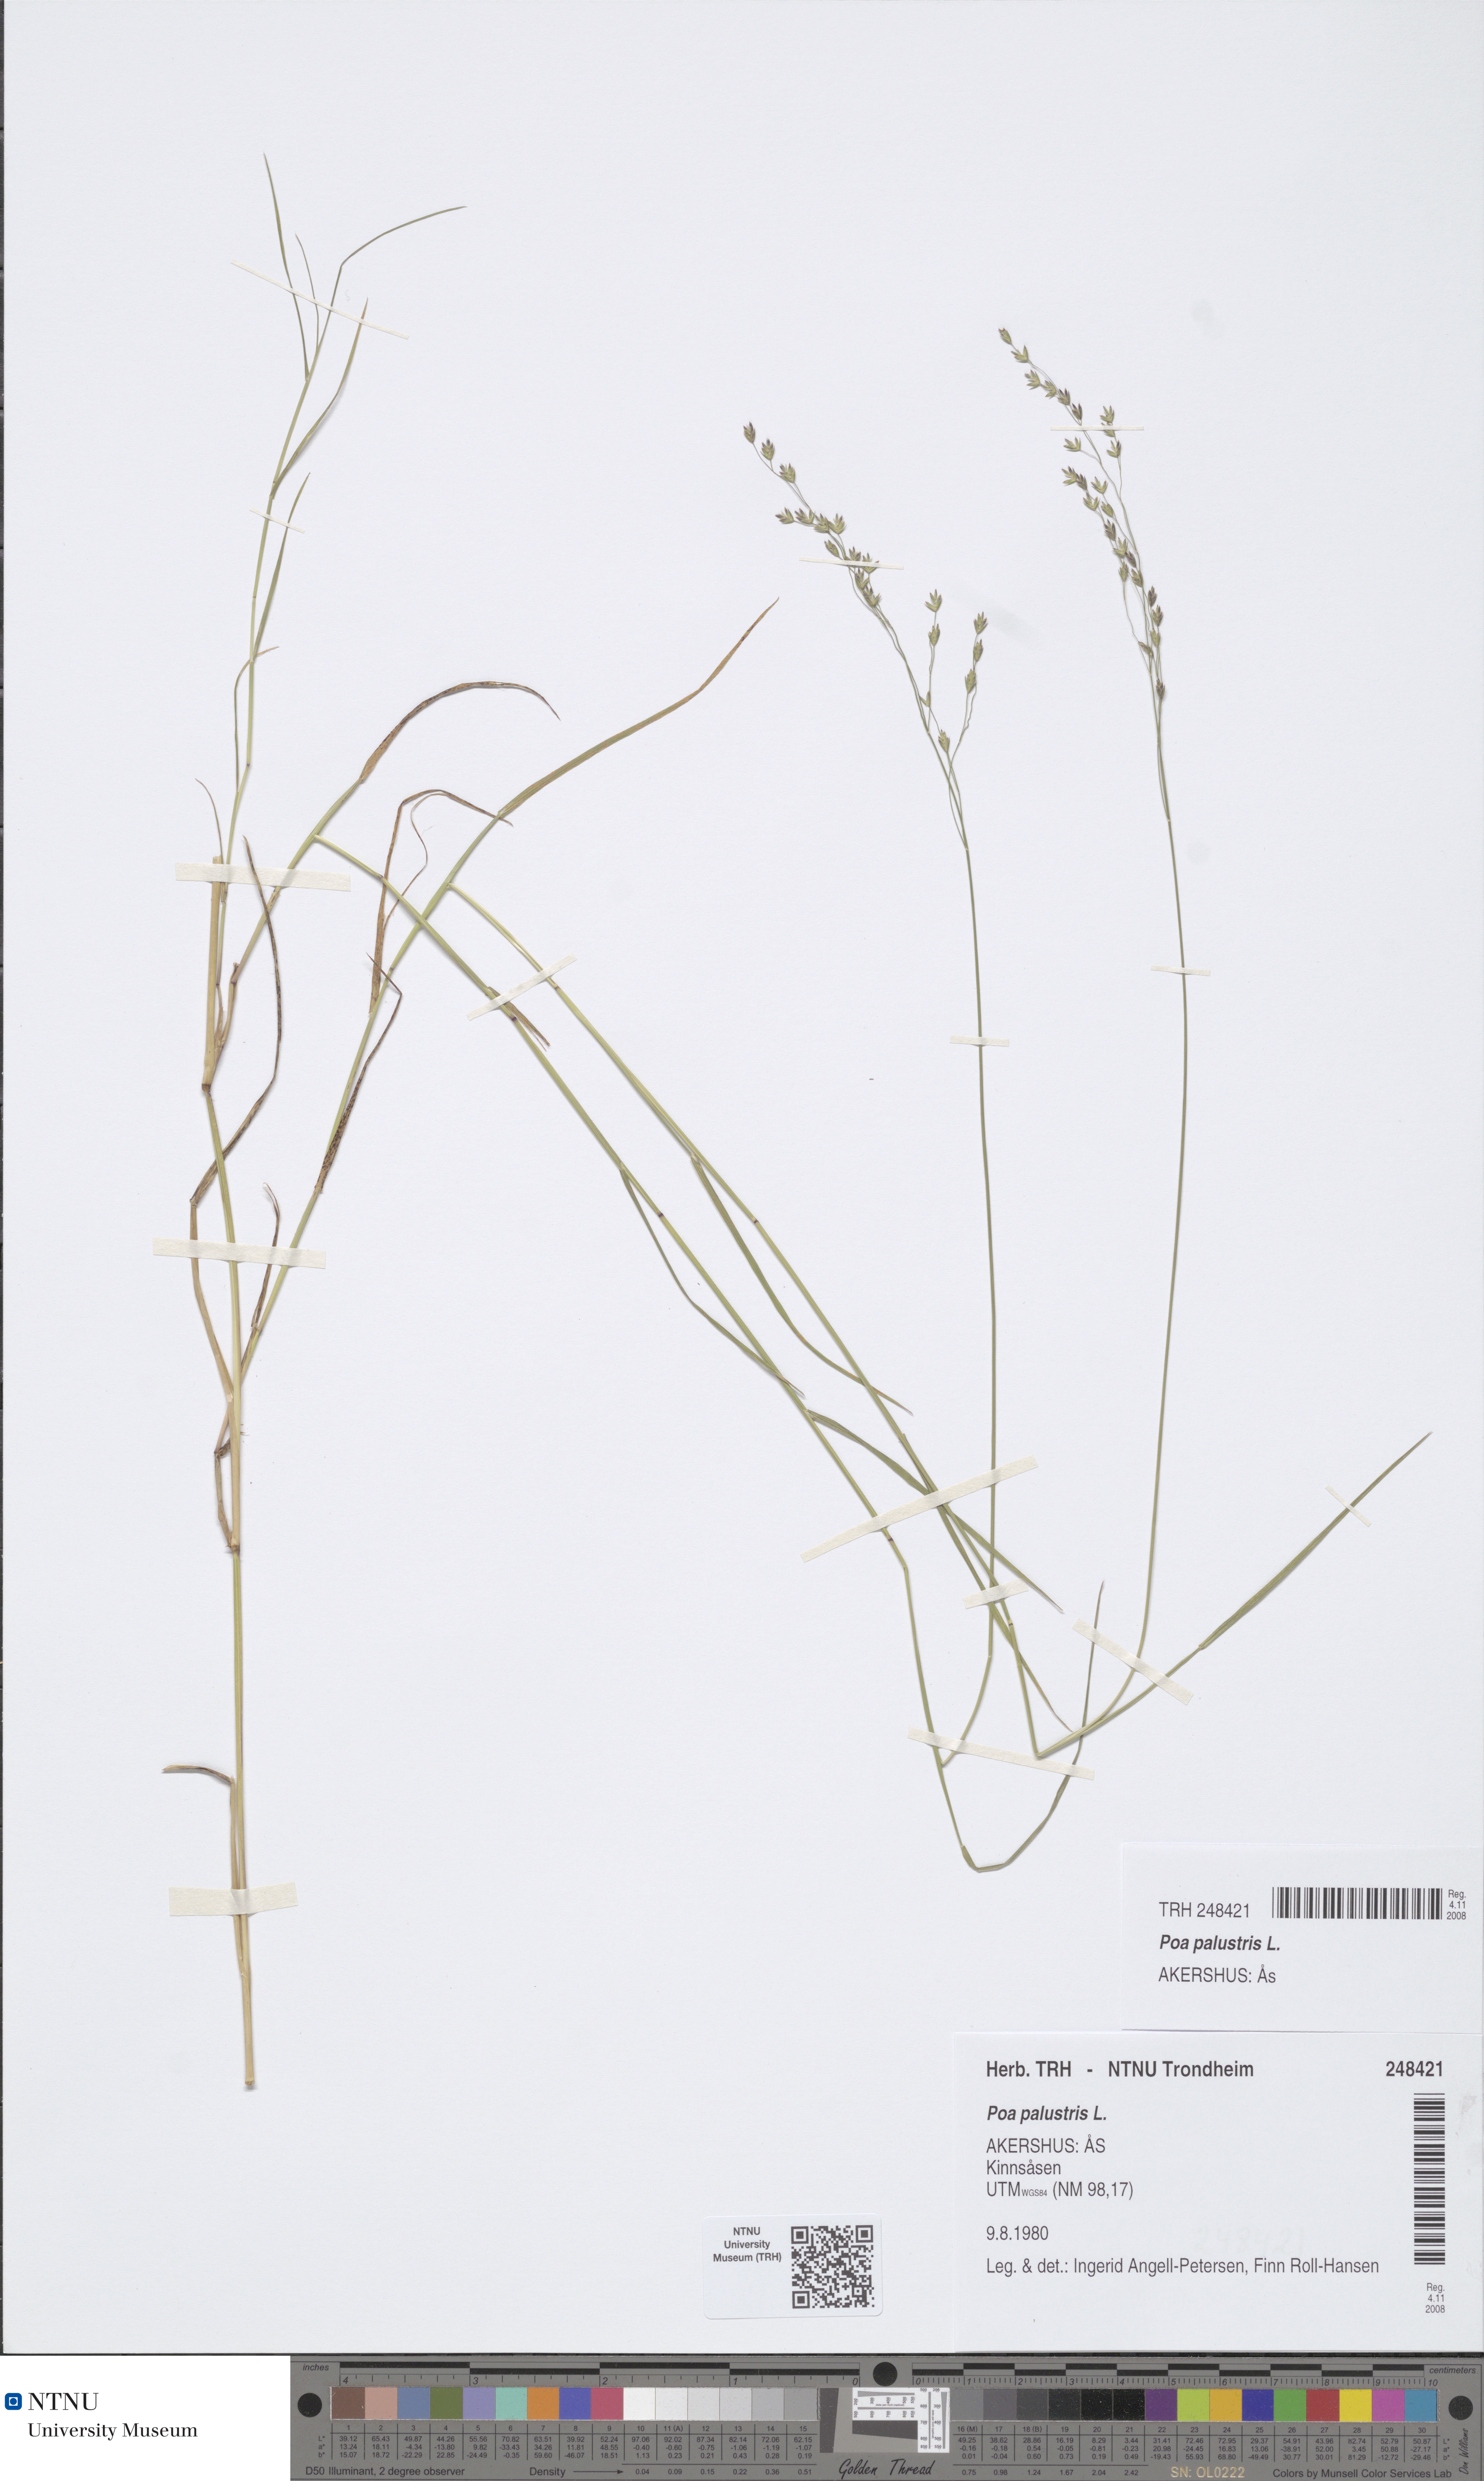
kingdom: Plantae
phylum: Tracheophyta
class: Liliopsida
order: Poales
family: Poaceae
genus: Poa
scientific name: Poa palustris
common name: Swamp meadow-grass
